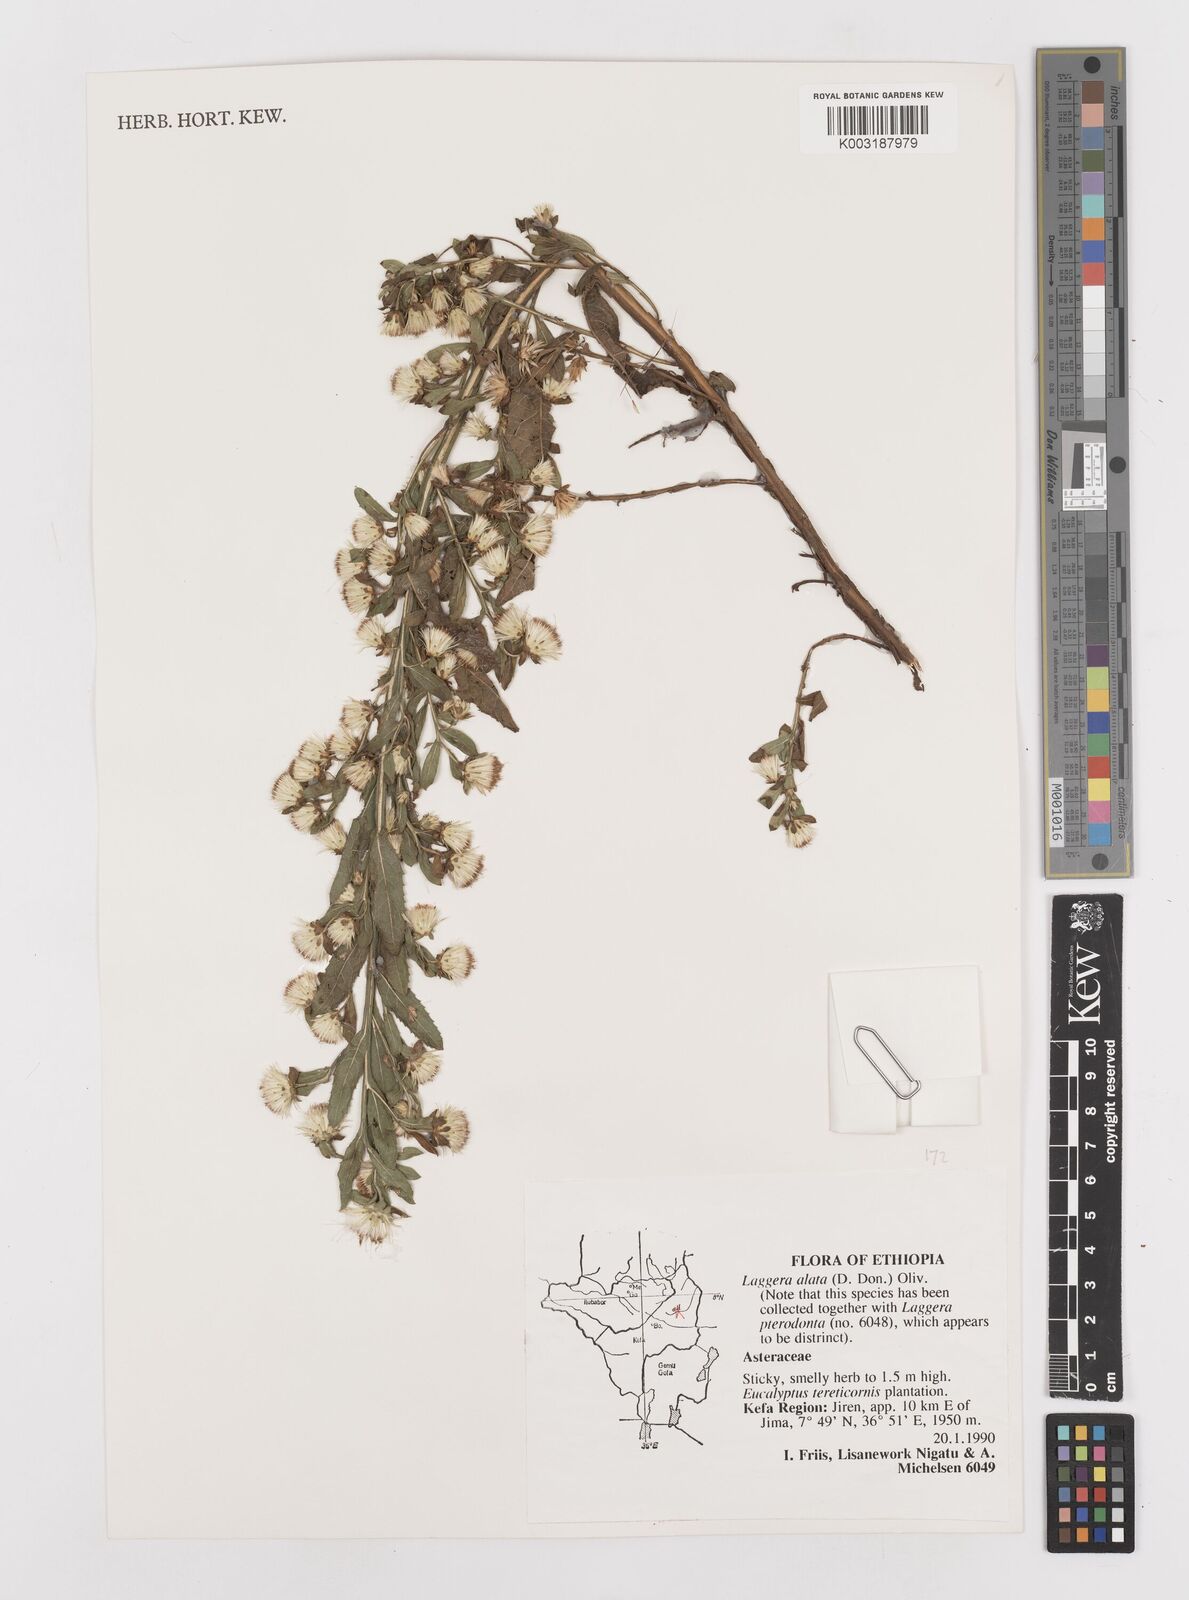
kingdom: Plantae
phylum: Tracheophyta
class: Magnoliopsida
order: Asterales
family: Asteraceae
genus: Laggera
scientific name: Laggera crispata
